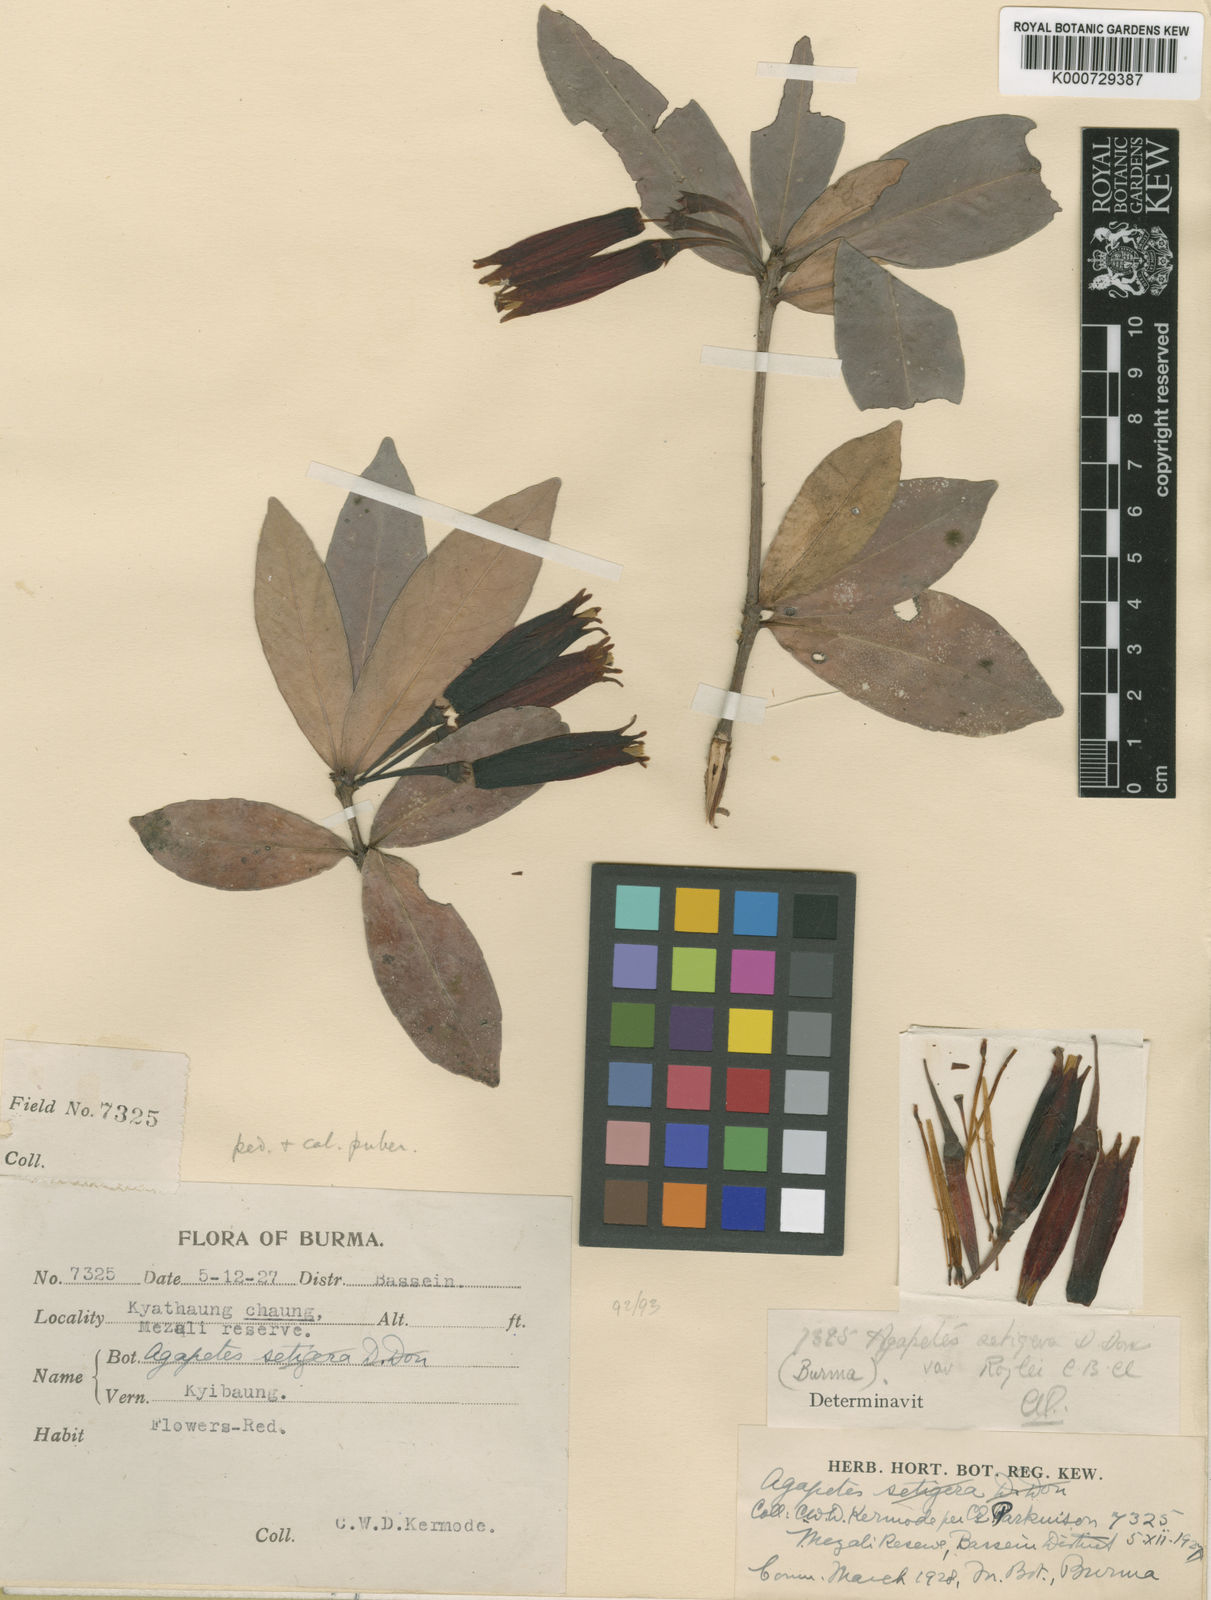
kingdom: Plantae
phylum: Tracheophyta
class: Magnoliopsida
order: Ericales
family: Ericaceae
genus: Agapetes
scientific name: Agapetes variegata
